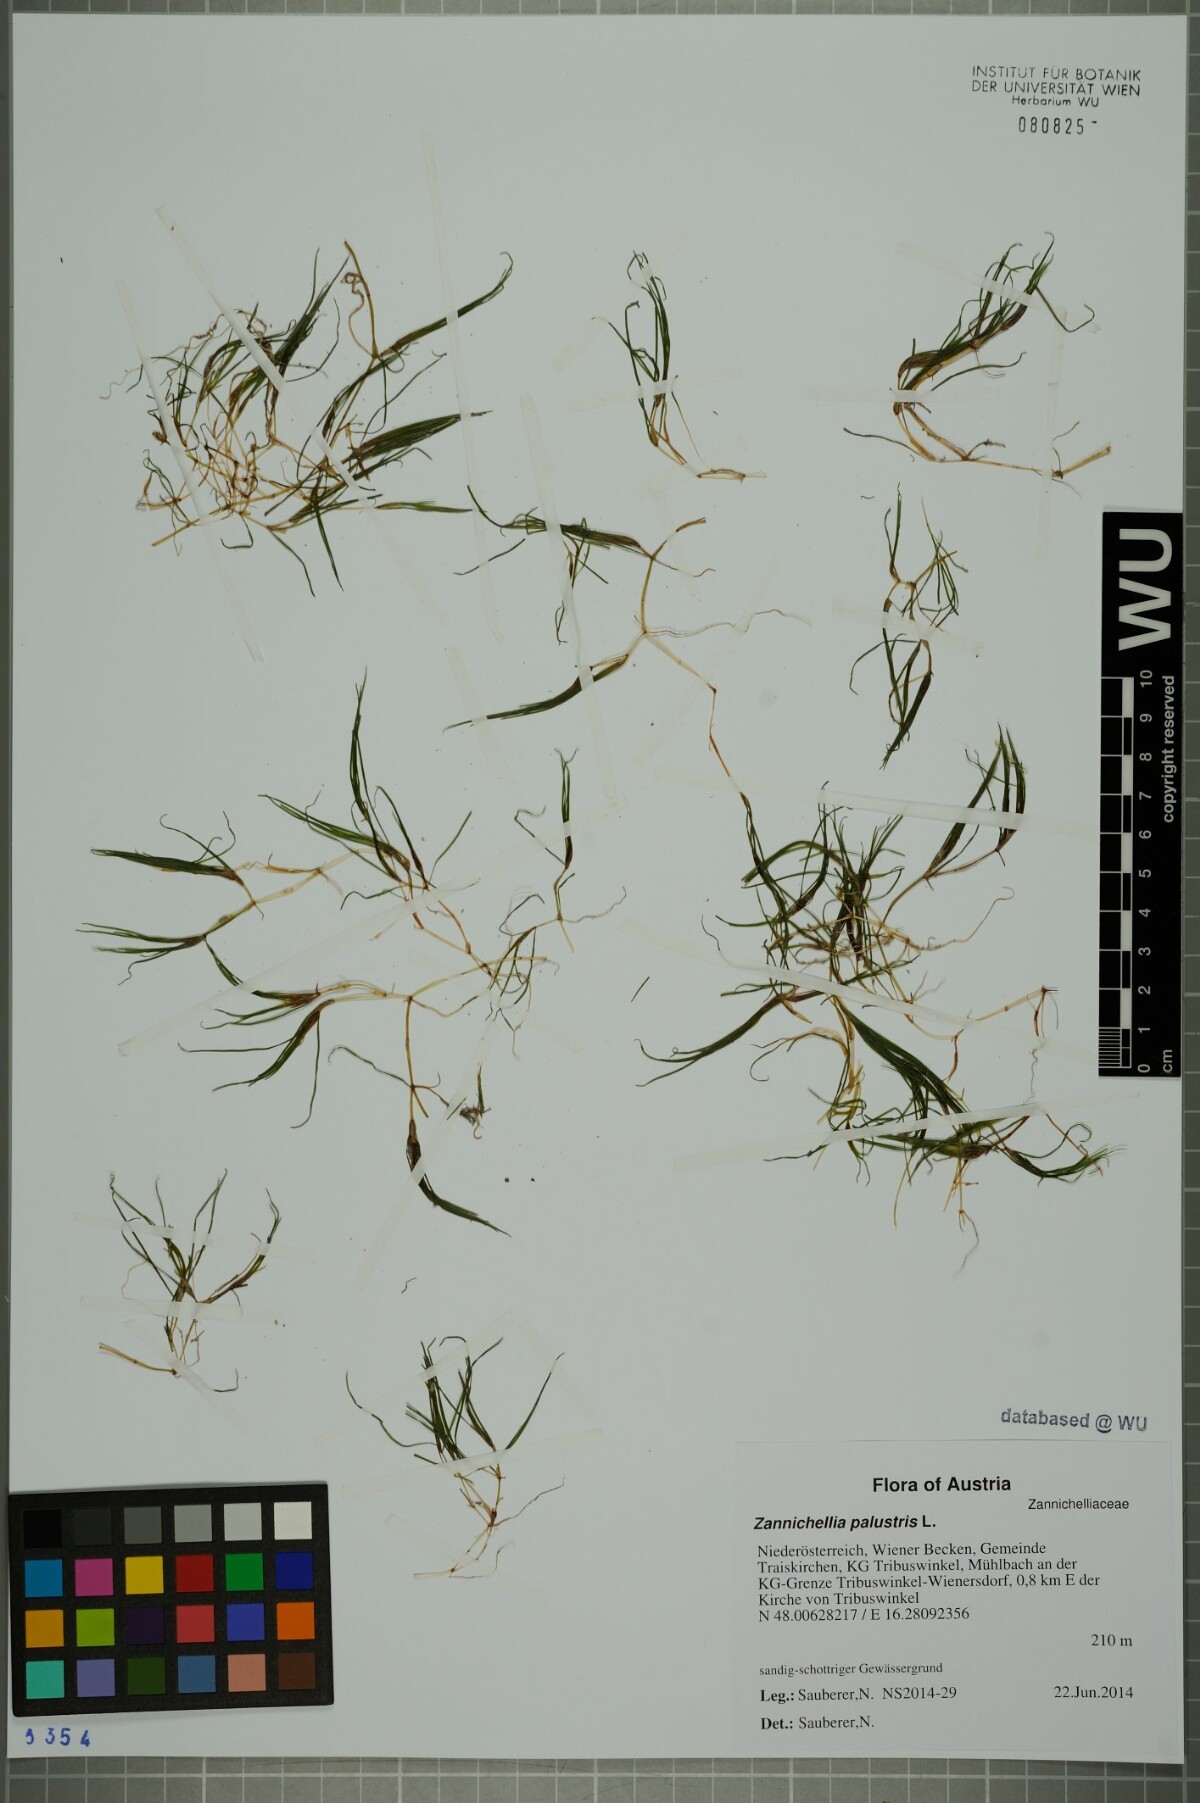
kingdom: Plantae
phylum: Tracheophyta
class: Liliopsida
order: Alismatales
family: Potamogetonaceae
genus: Zannichellia
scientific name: Zannichellia palustris
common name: Horned pondweed
